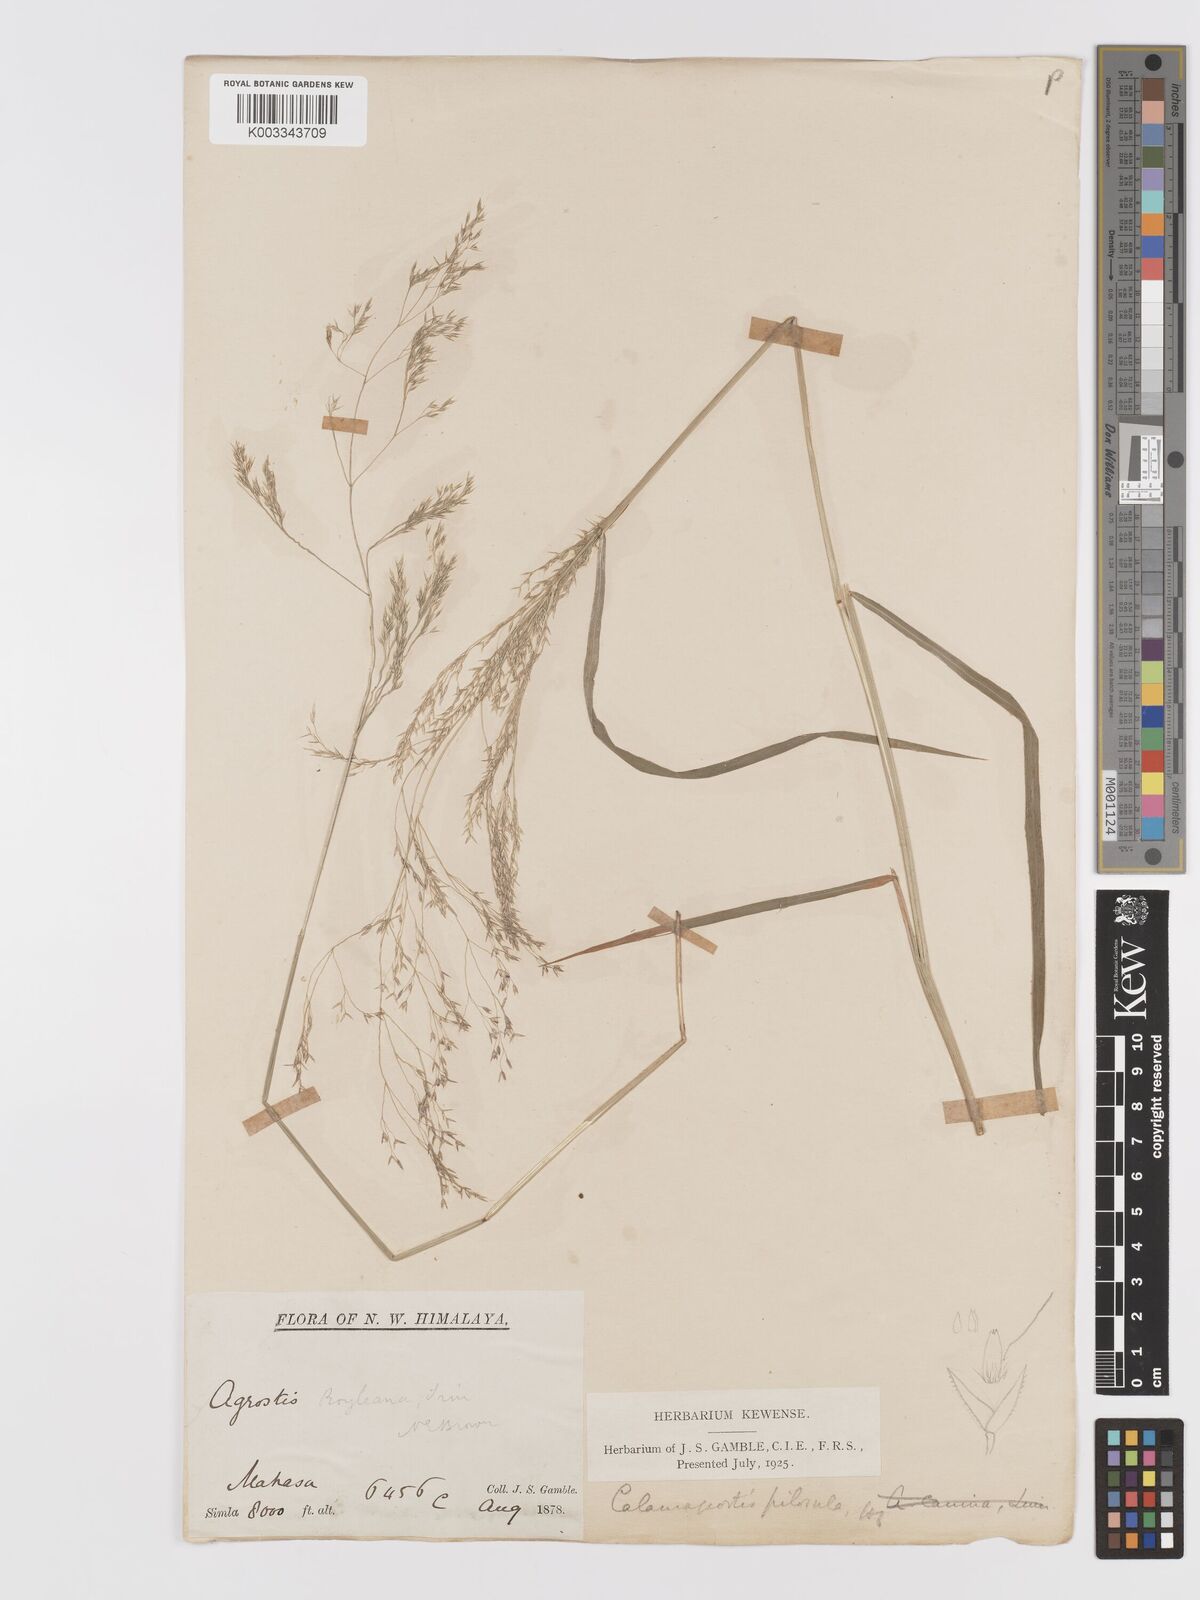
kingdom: Plantae
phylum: Tracheophyta
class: Liliopsida
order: Poales
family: Poaceae
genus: Agrostis
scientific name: Agrostis pilosula
